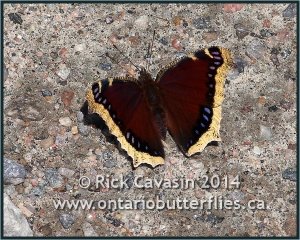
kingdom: Animalia
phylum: Arthropoda
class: Insecta
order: Lepidoptera
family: Nymphalidae
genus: Nymphalis
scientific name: Nymphalis antiopa
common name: Mourning Cloak
